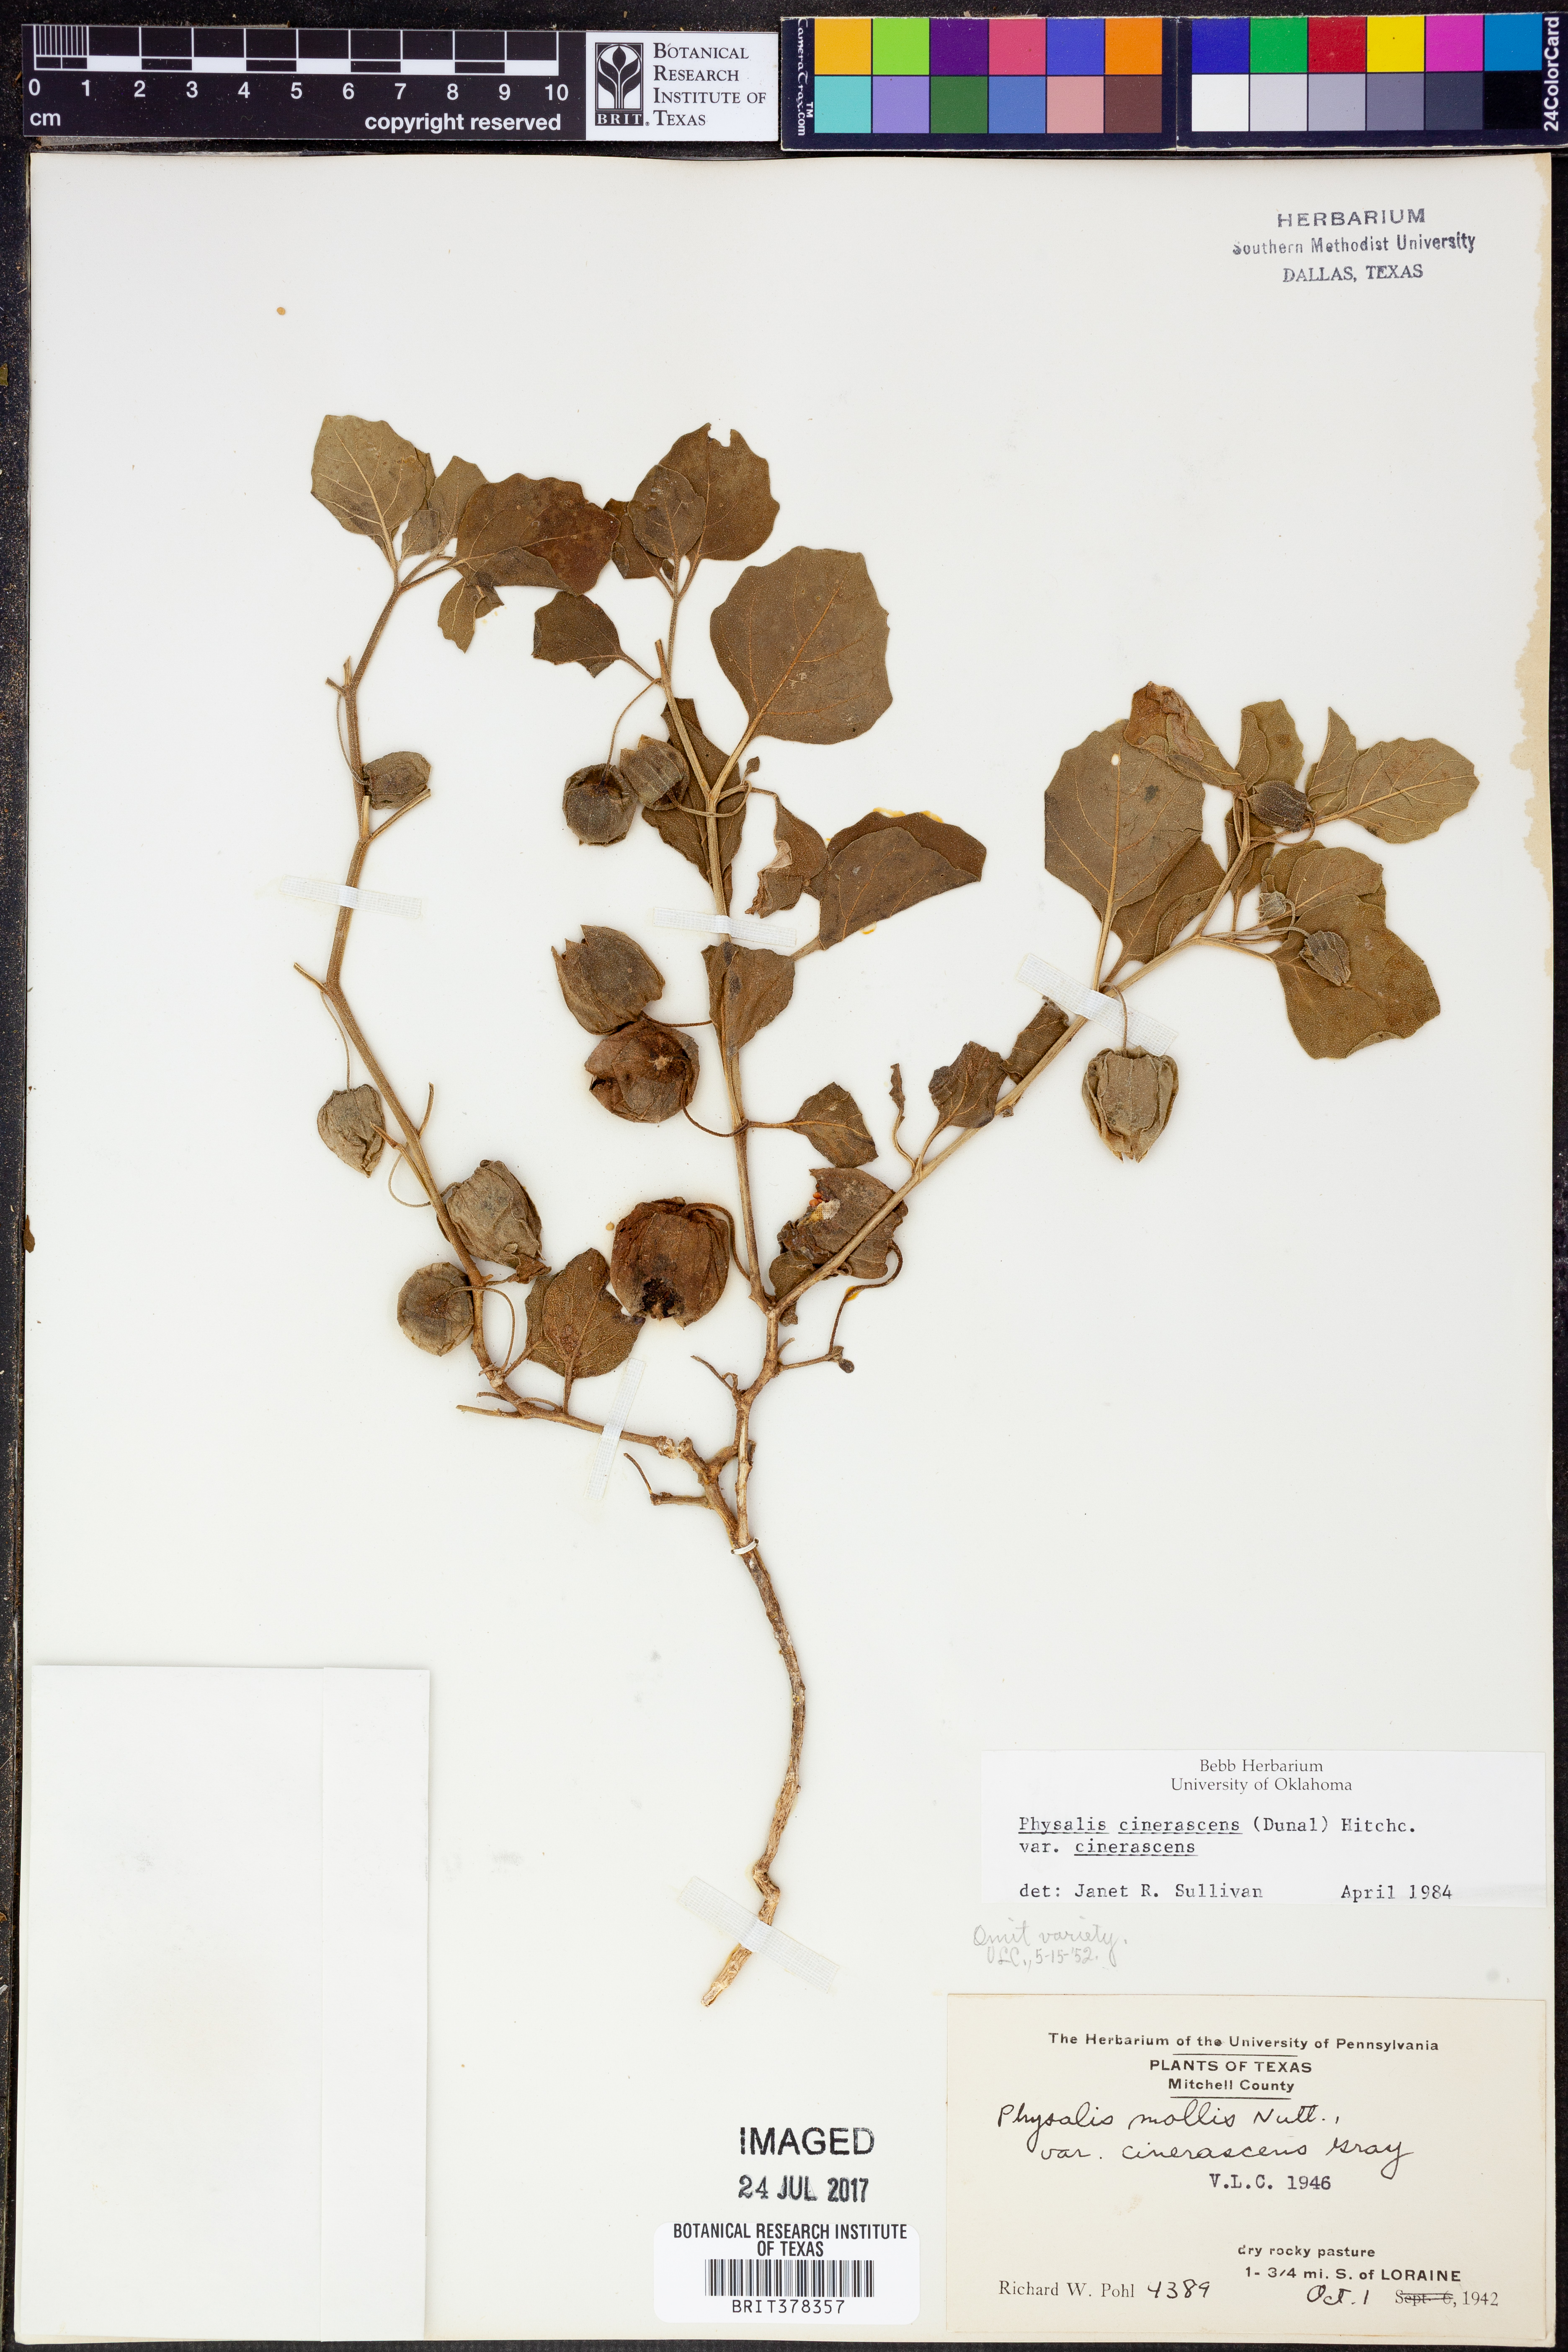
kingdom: Plantae
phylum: Tracheophyta
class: Magnoliopsida
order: Solanales
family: Solanaceae
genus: Physalis
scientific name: Physalis cinerascens
